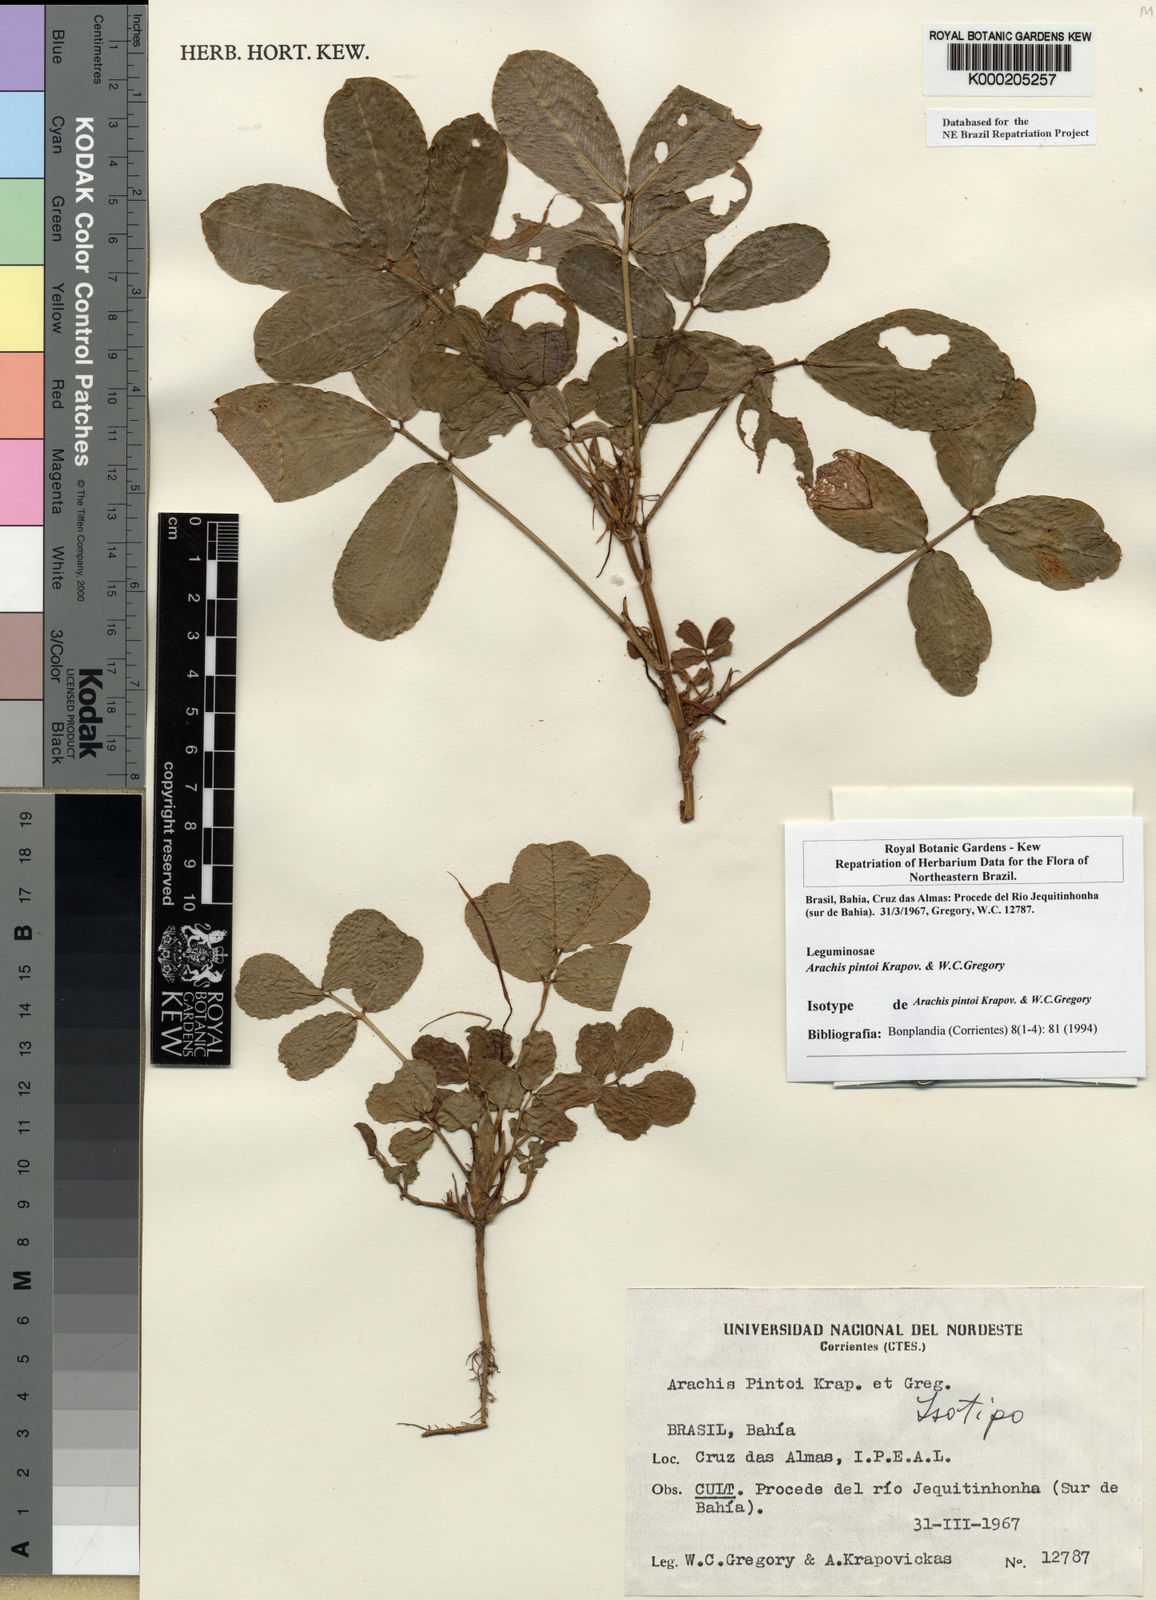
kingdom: Plantae
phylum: Tracheophyta
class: Magnoliopsida
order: Fabales
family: Fabaceae
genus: Arachis
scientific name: Arachis pintoi
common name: Pinto peanut
